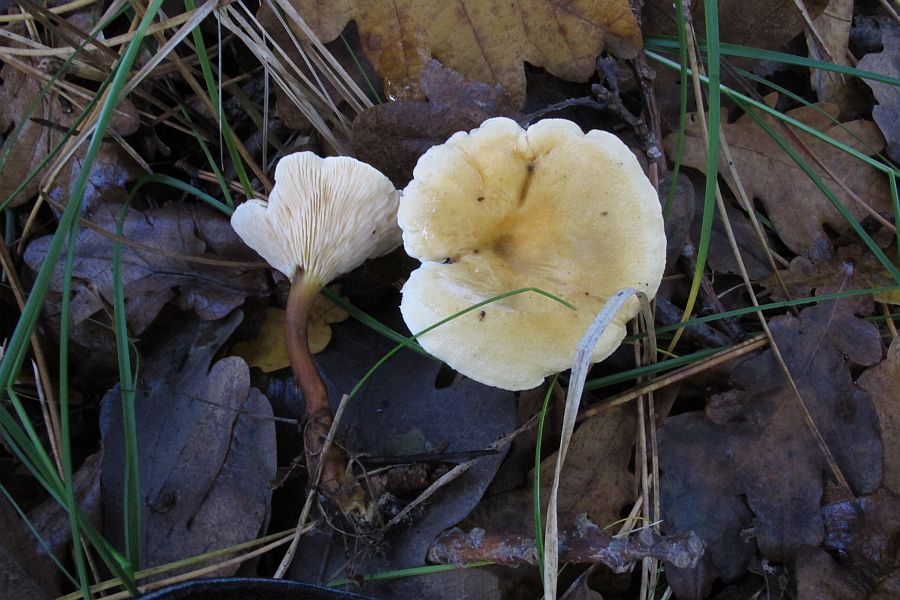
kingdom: Fungi
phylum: Basidiomycota
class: Agaricomycetes
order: Boletales
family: Hygrophoropsidaceae
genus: Hygrophoropsis
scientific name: Hygrophoropsis pallida
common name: bleg orangekantarel
